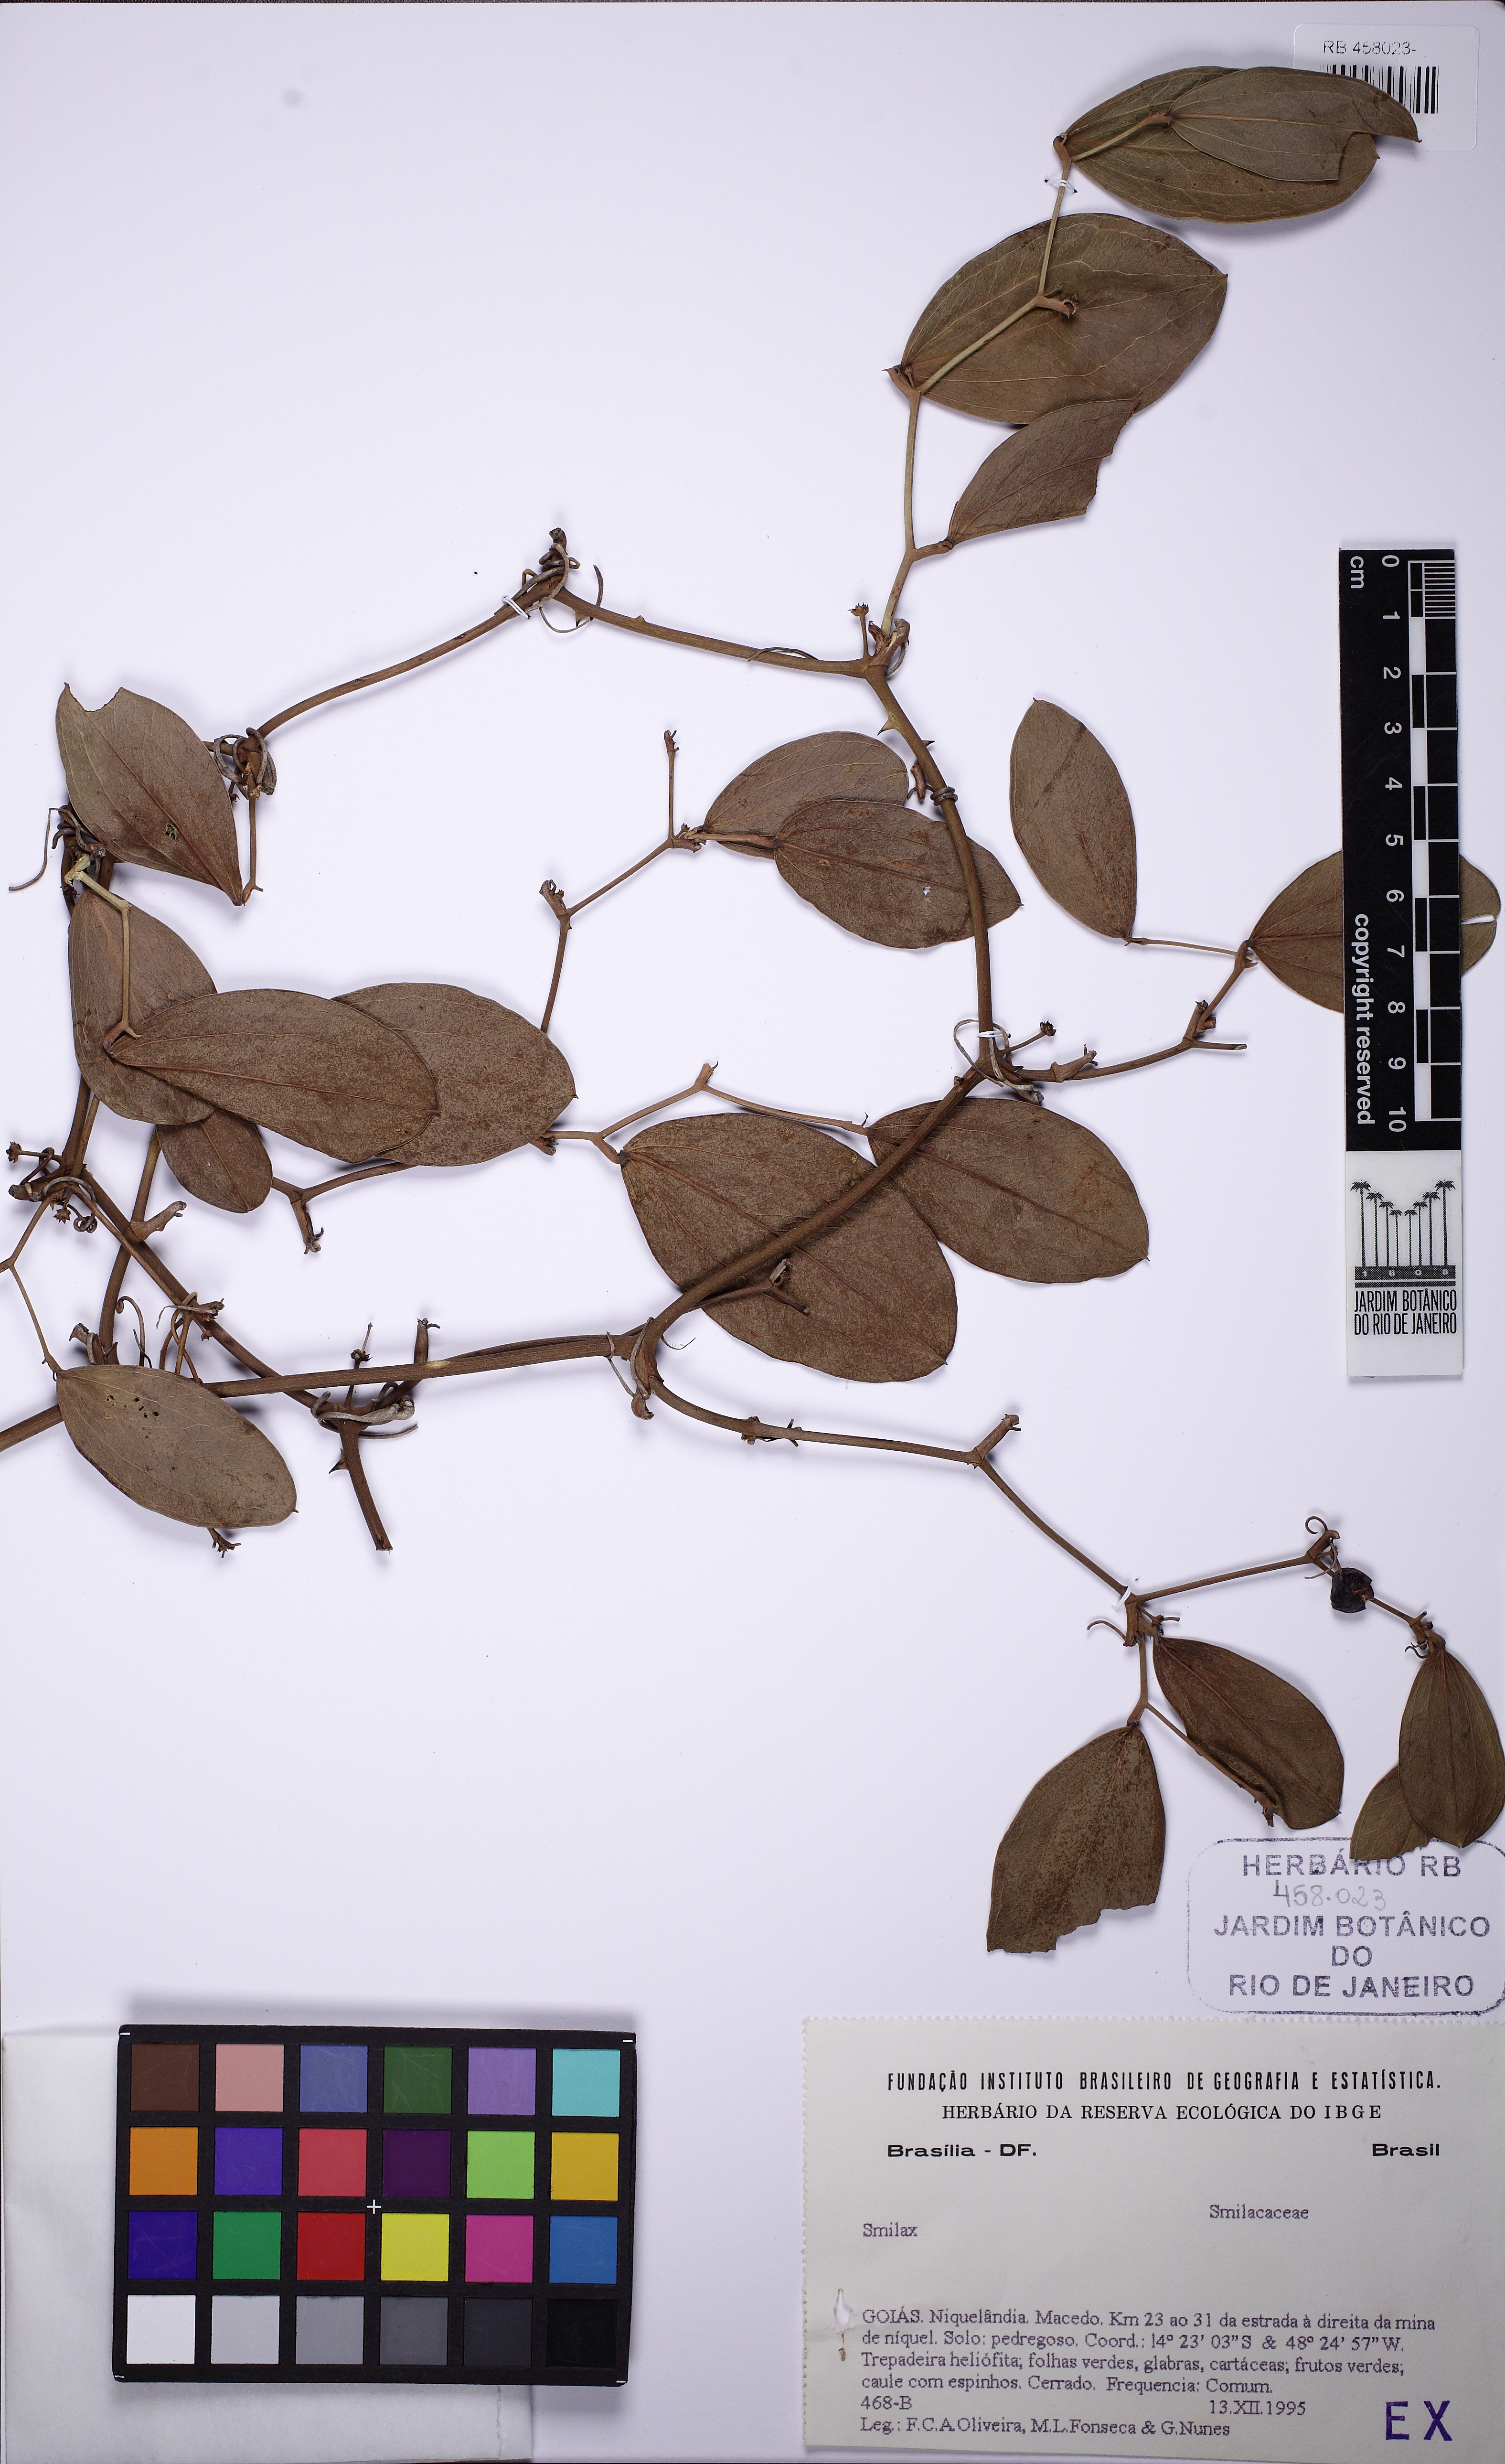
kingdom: Plantae
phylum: Tracheophyta
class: Liliopsida
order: Liliales
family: Smilacaceae
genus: Smilax
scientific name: Smilax
